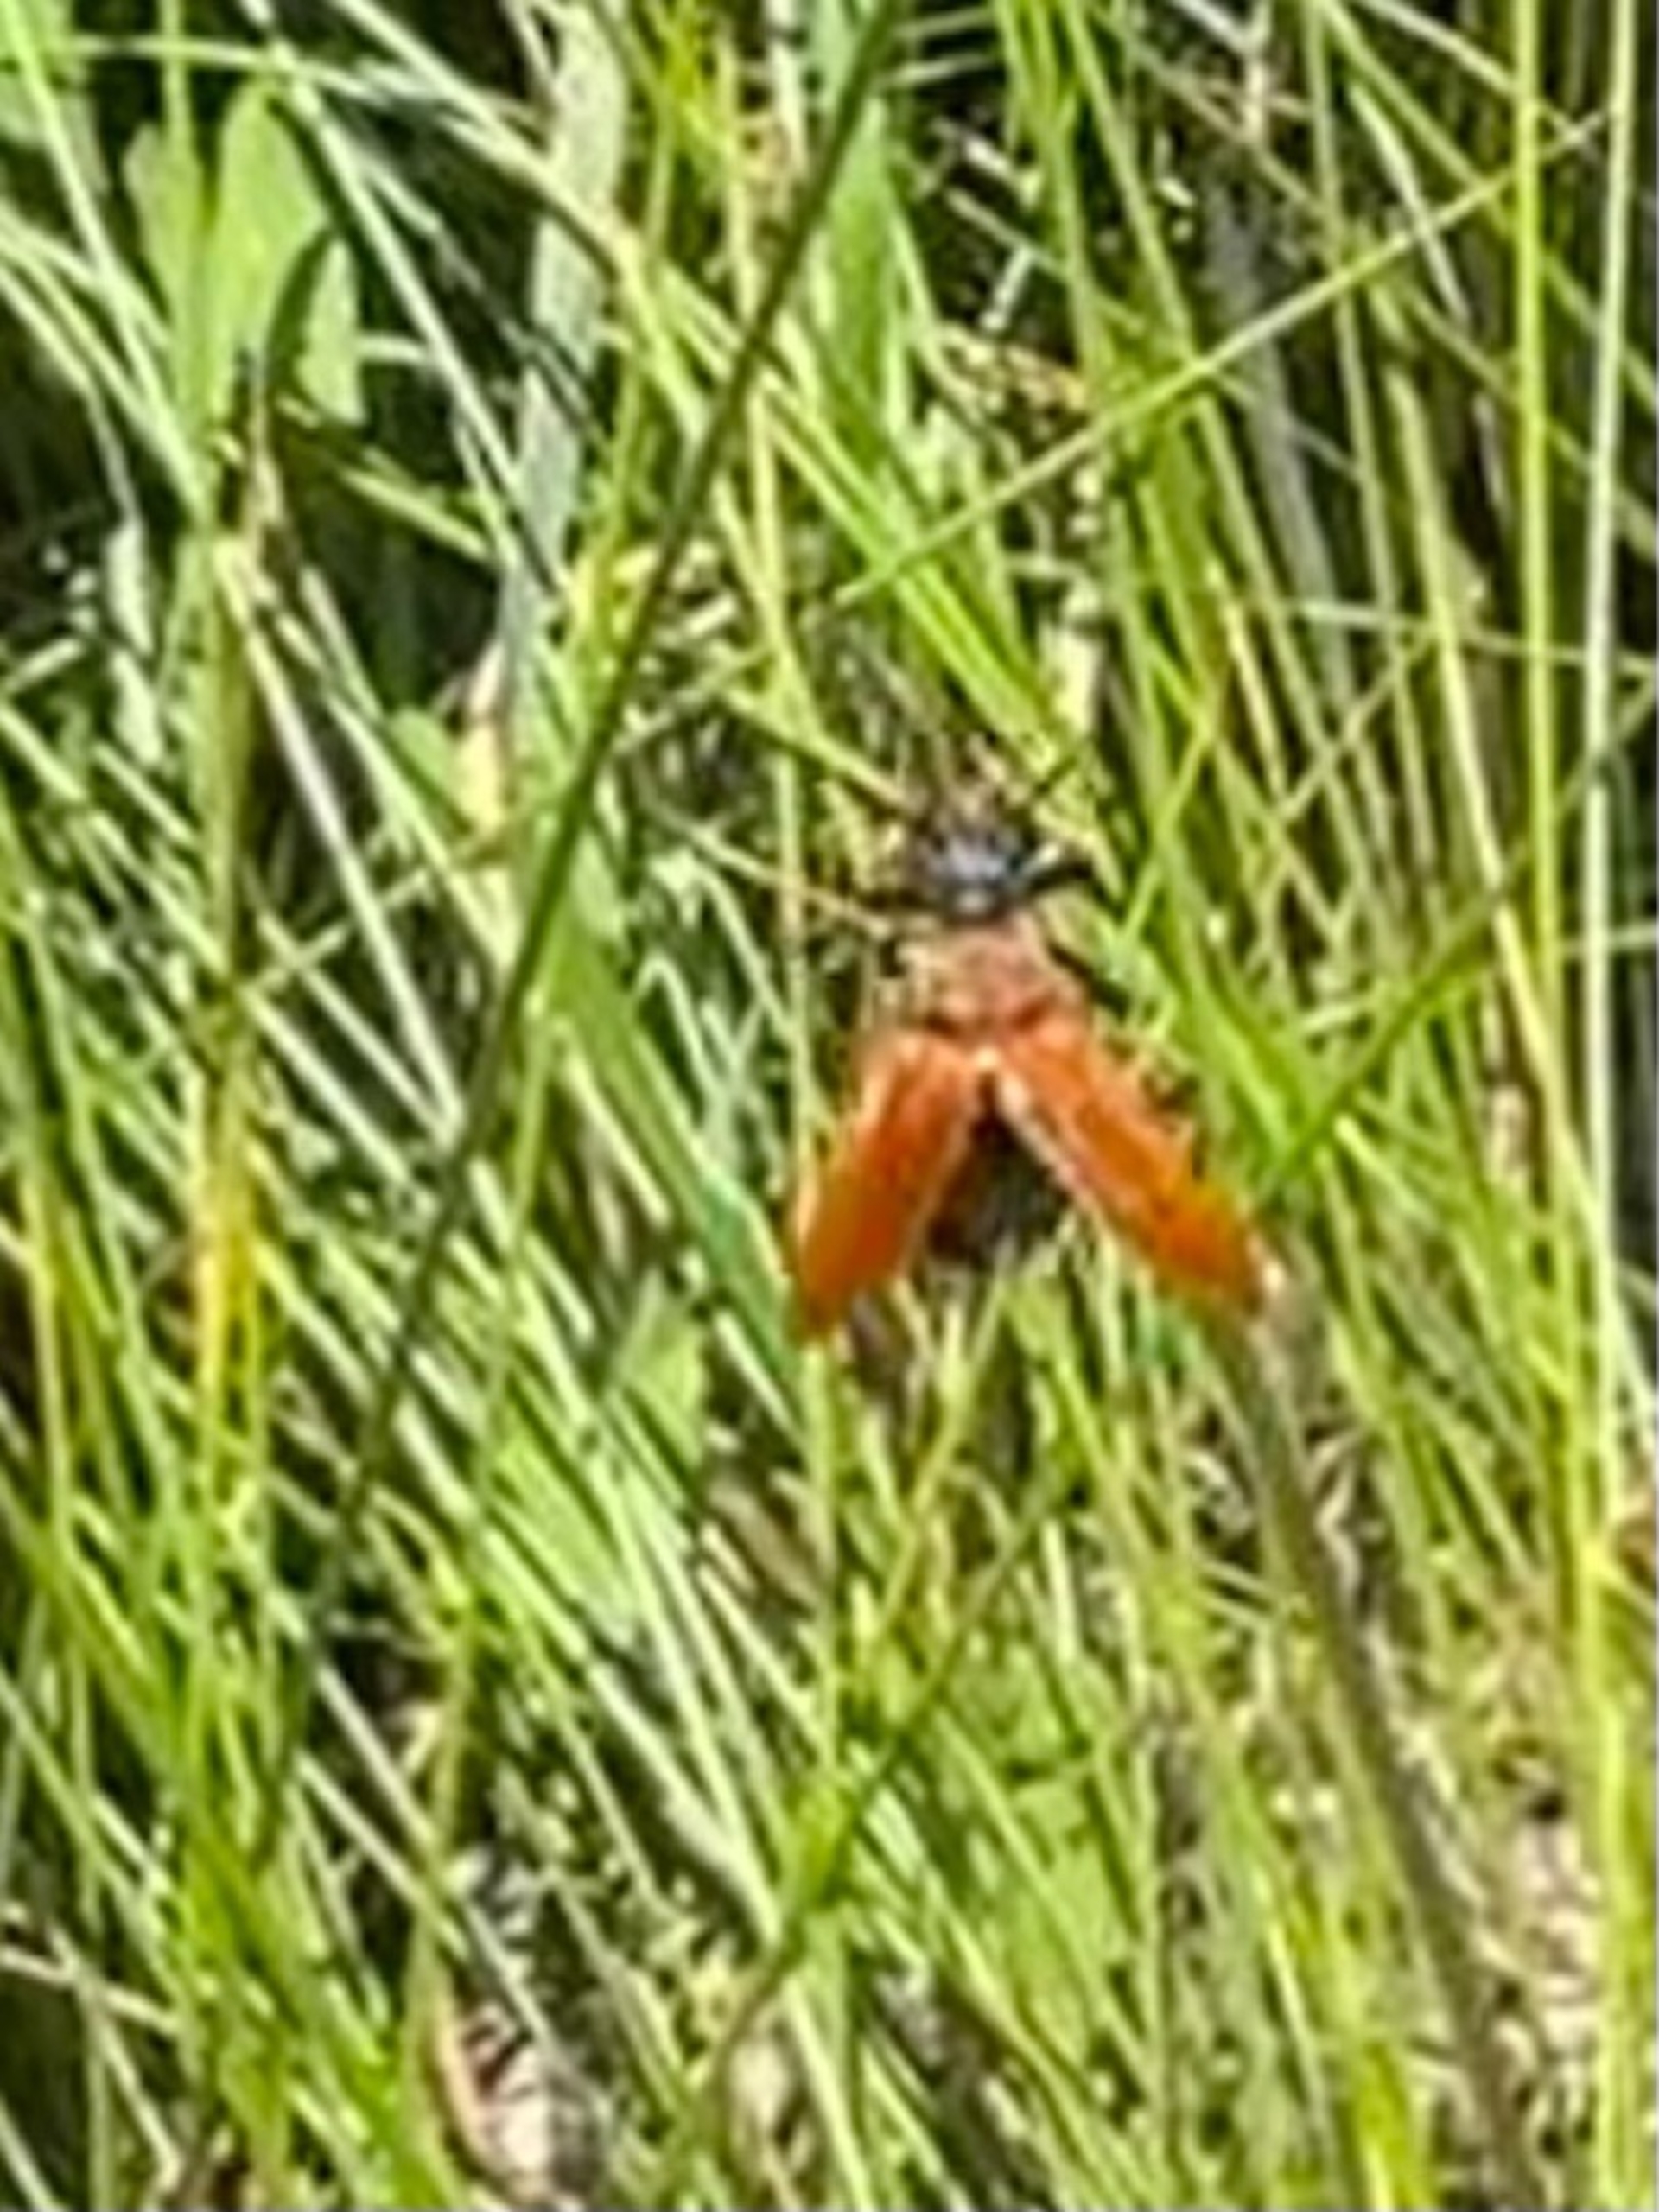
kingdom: Animalia
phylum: Arthropoda
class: Insecta
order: Coleoptera
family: Cerambycidae
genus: Stictoleptura
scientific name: Stictoleptura rubra
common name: Rød blomsterbuk
